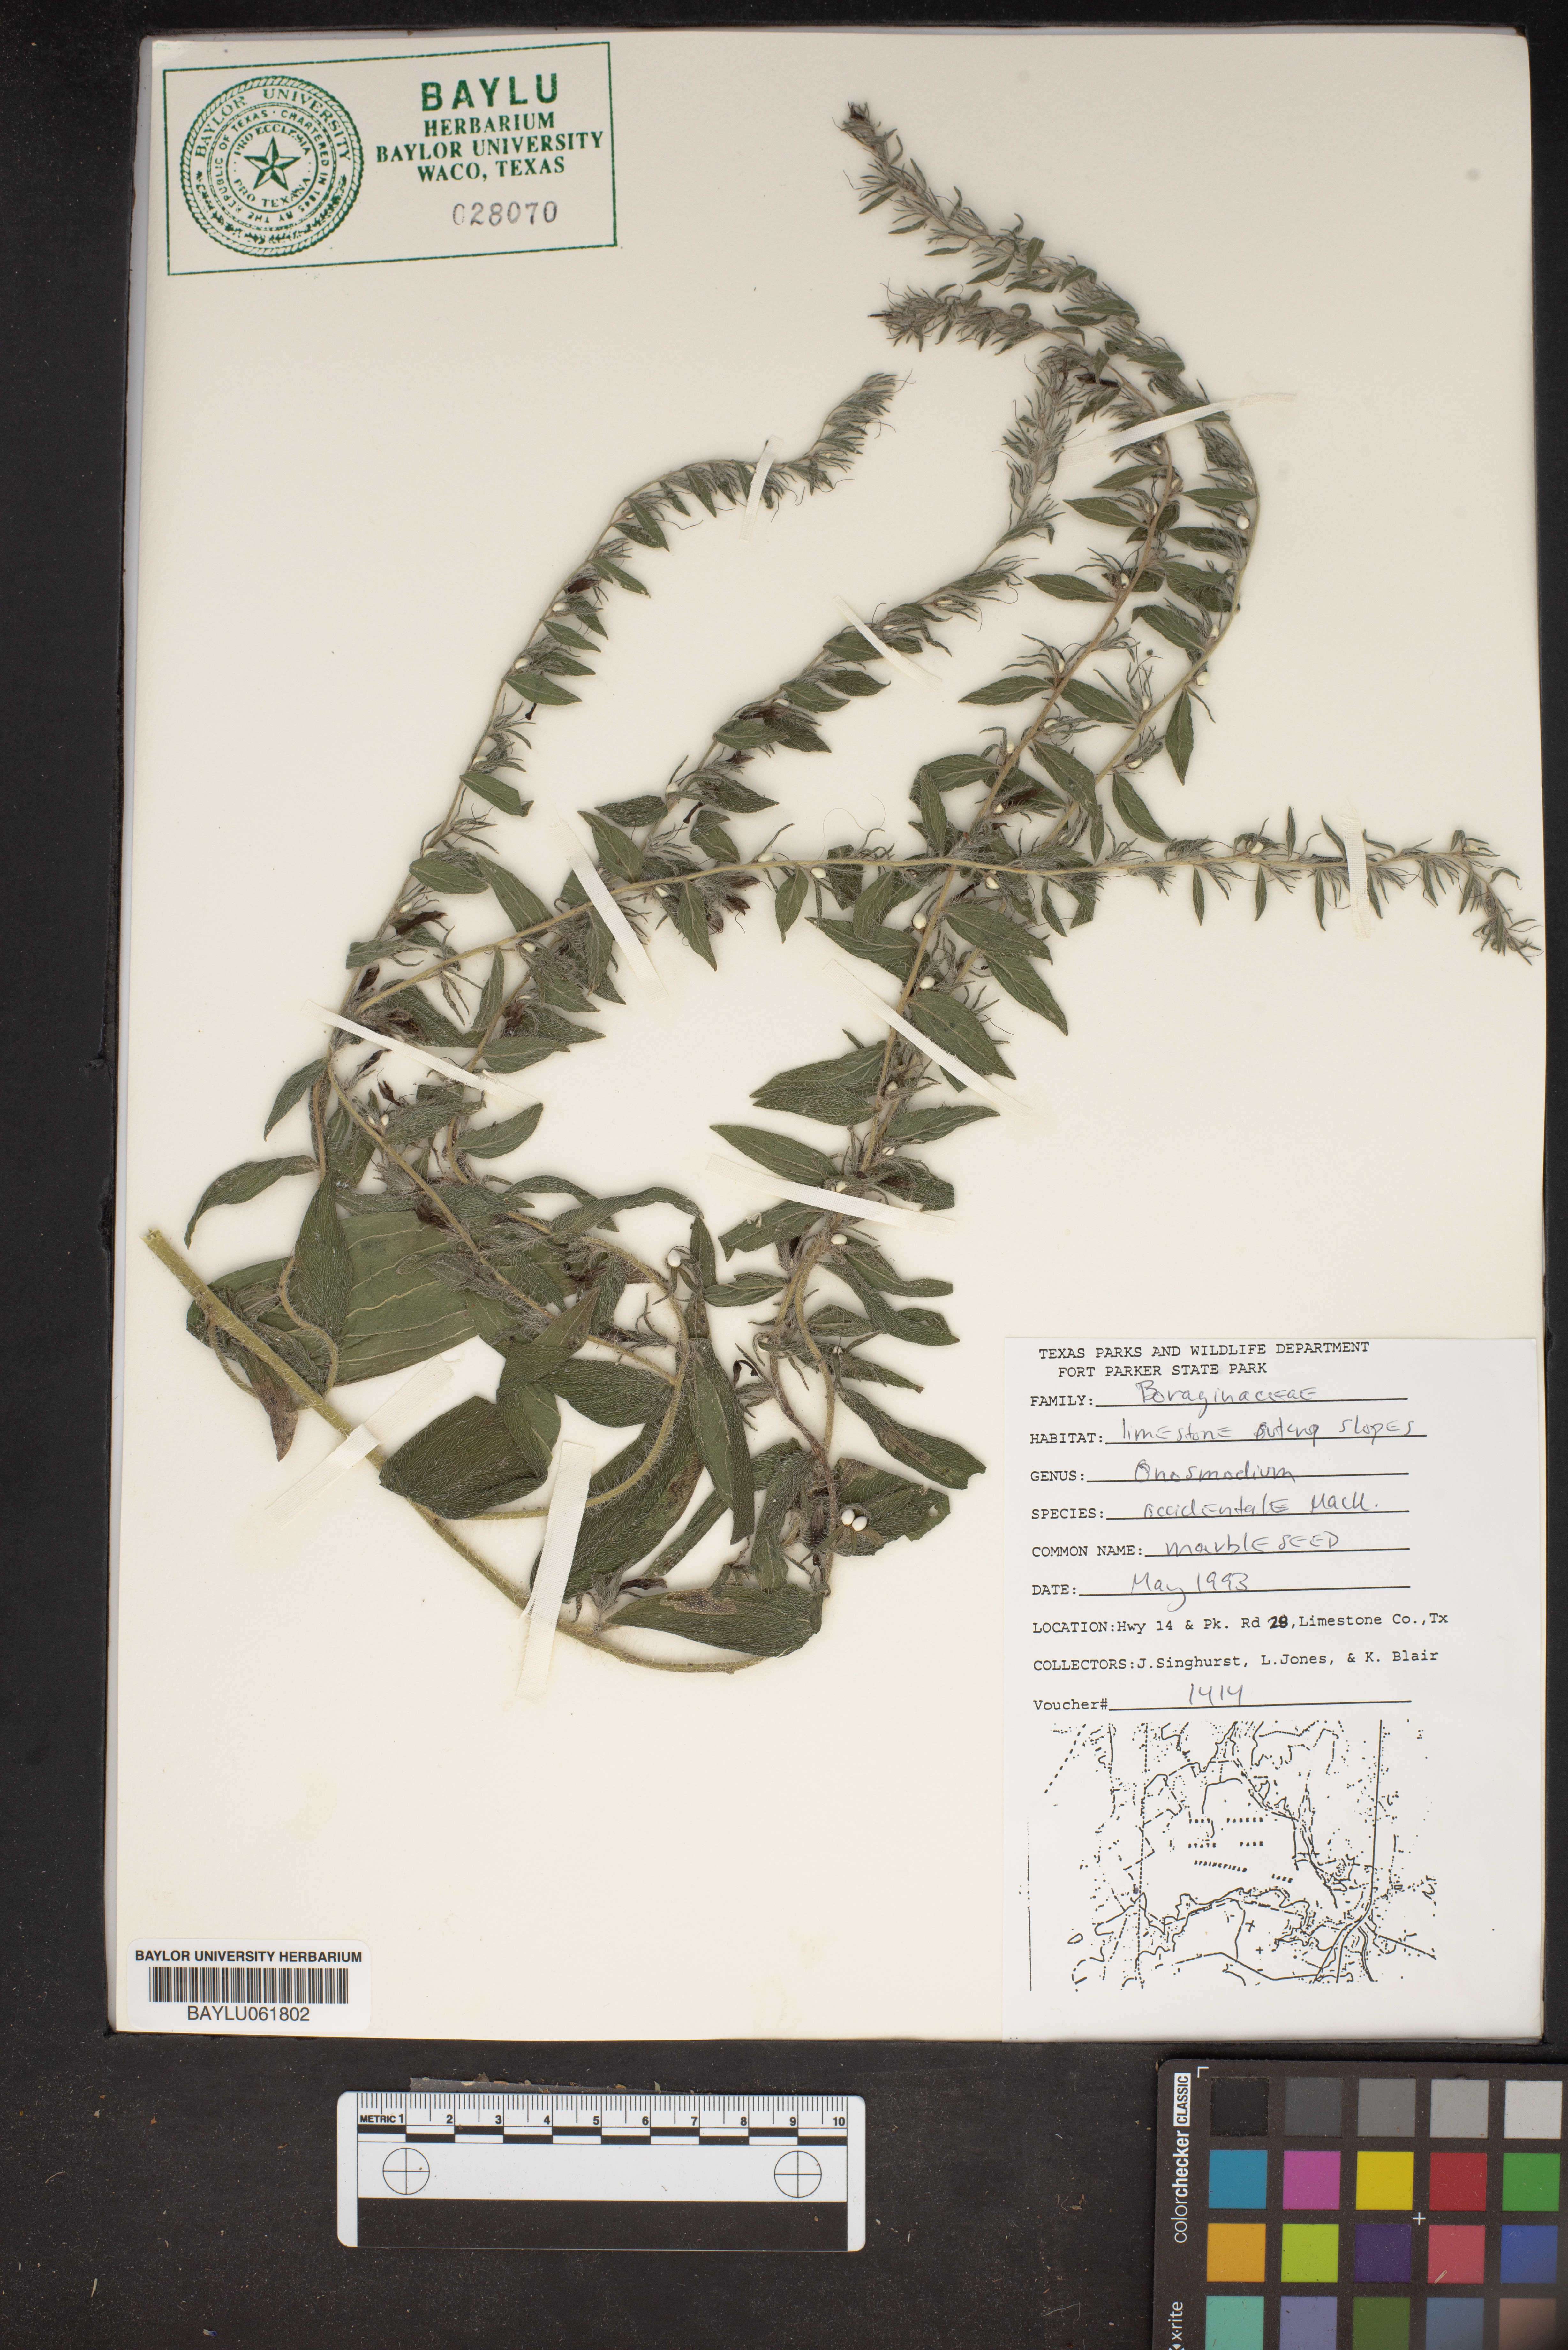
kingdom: Plantae
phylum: Tracheophyta
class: Magnoliopsida
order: Boraginales
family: Boraginaceae
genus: Lithospermum
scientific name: Lithospermum occidentale
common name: Western false gromwell
